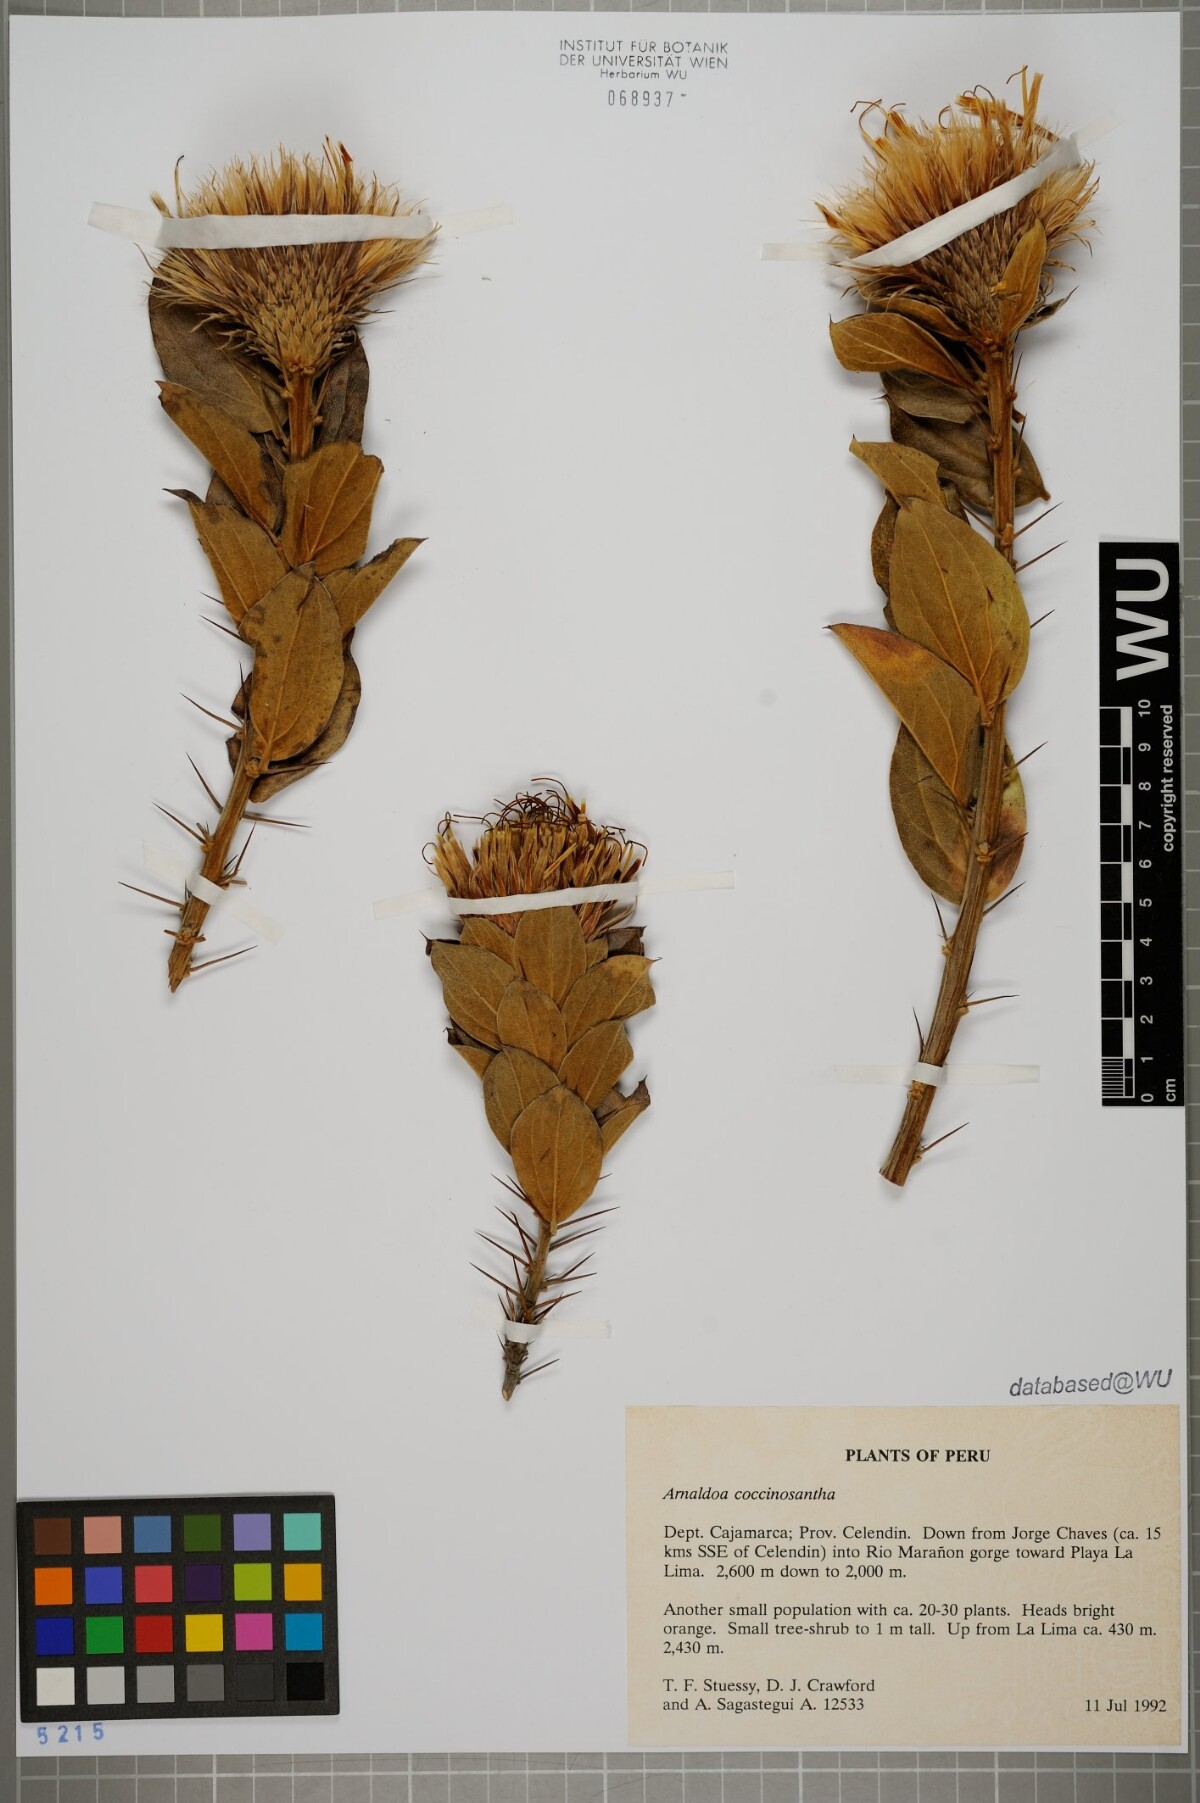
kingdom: Plantae
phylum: Tracheophyta
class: Magnoliopsida
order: Asterales
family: Asteraceae
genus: Arnaldoa
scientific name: Arnaldoa weberbaueri
